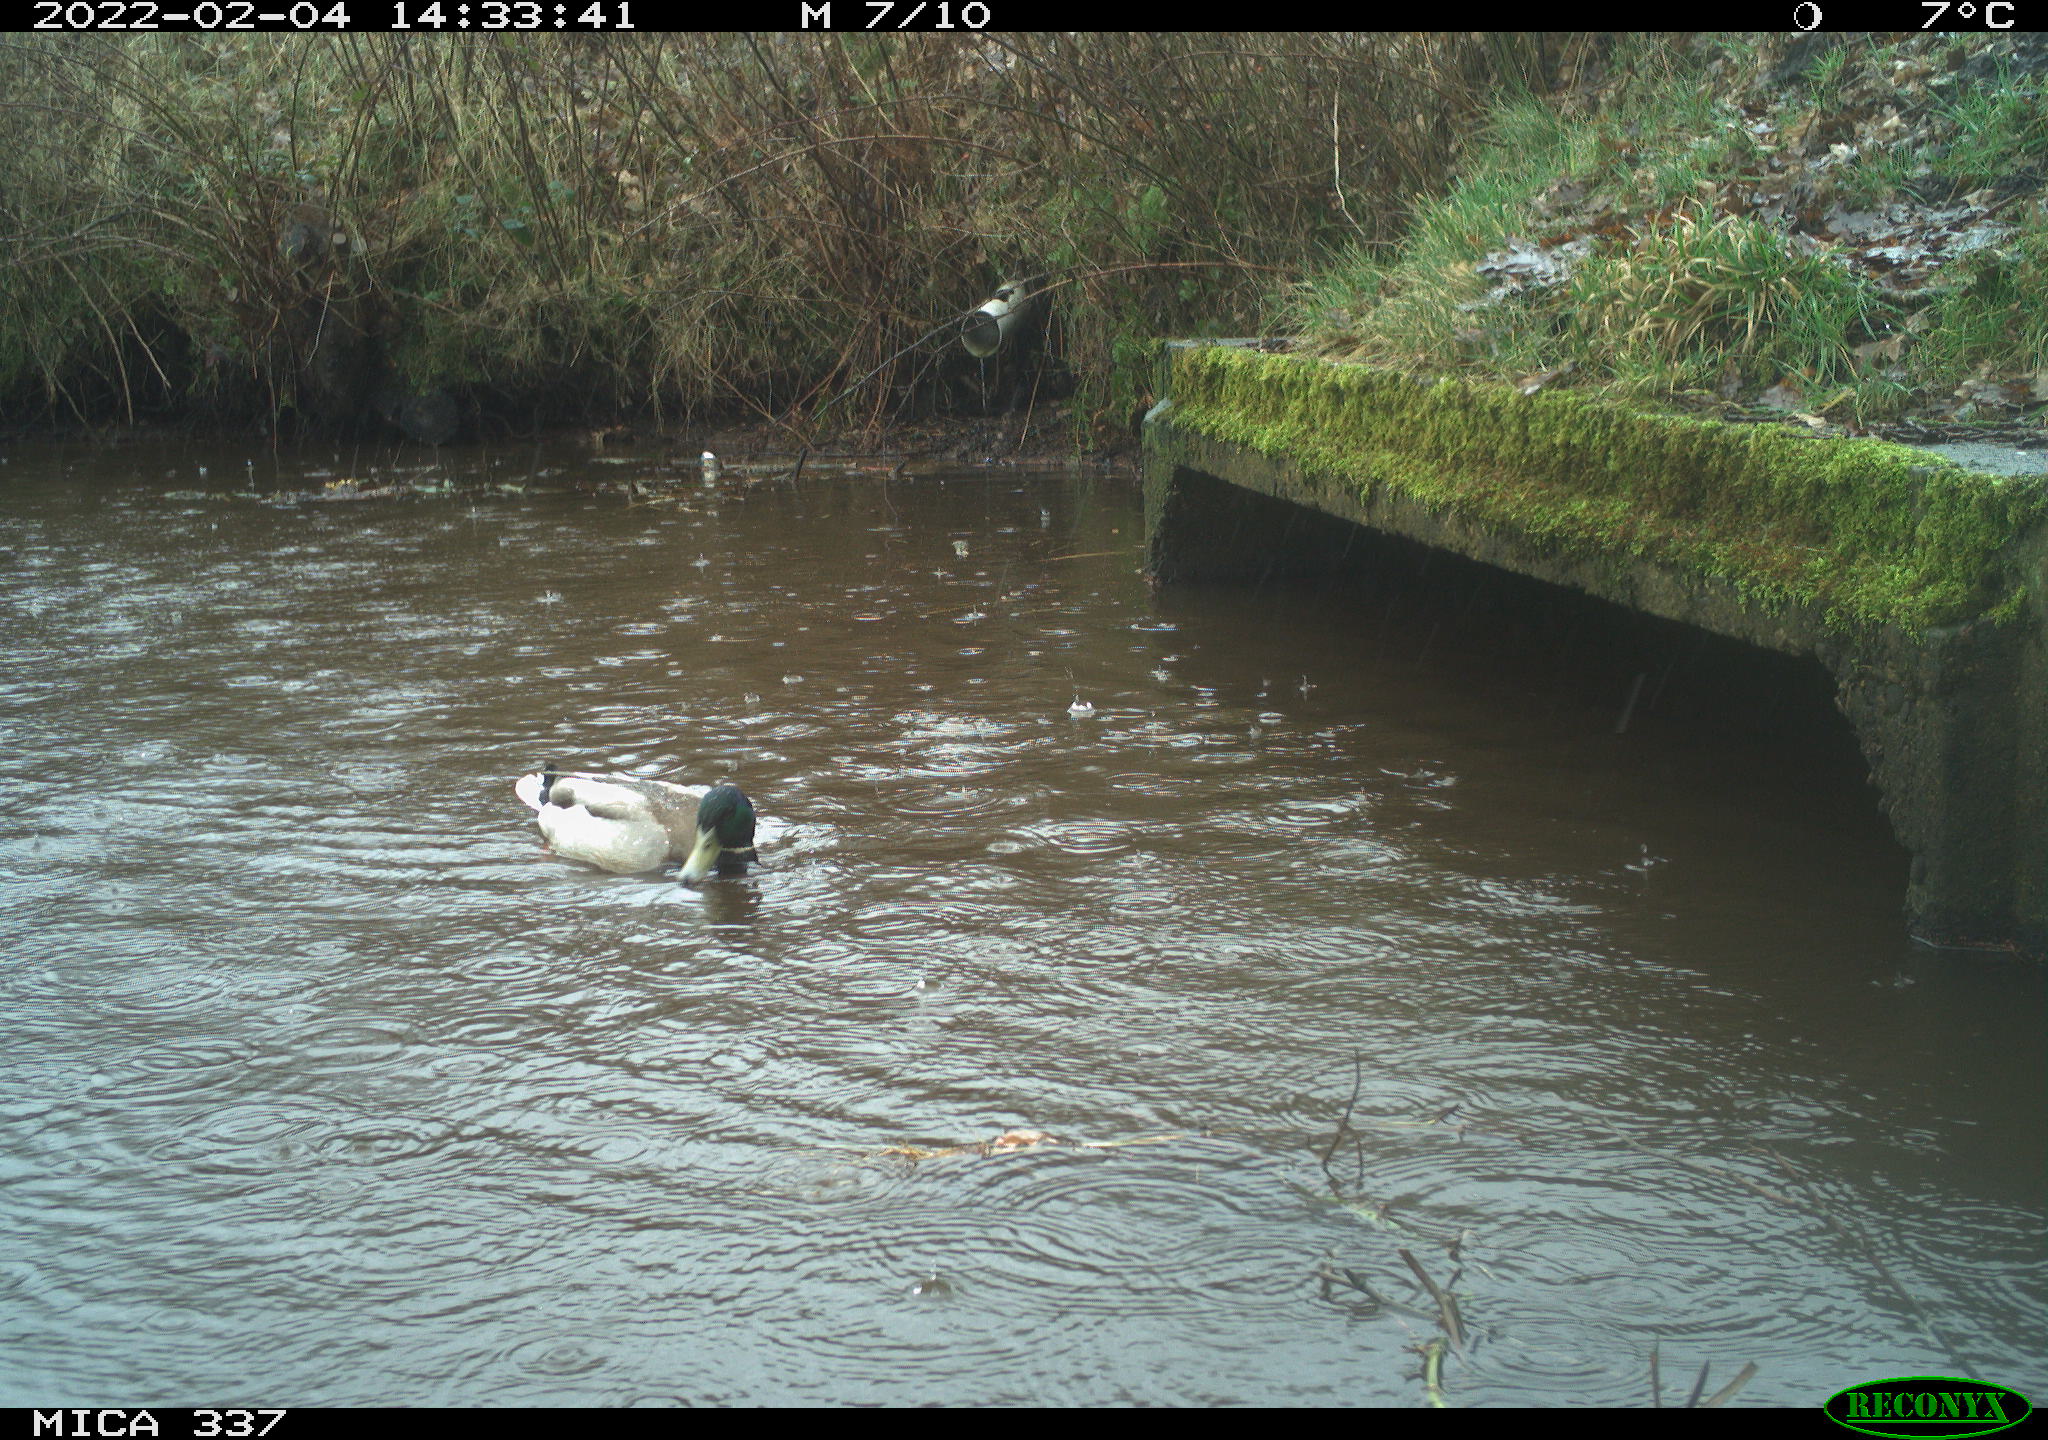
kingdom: Animalia
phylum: Chordata
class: Aves
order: Anseriformes
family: Anatidae
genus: Anas
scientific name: Anas platyrhynchos
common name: Mallard
